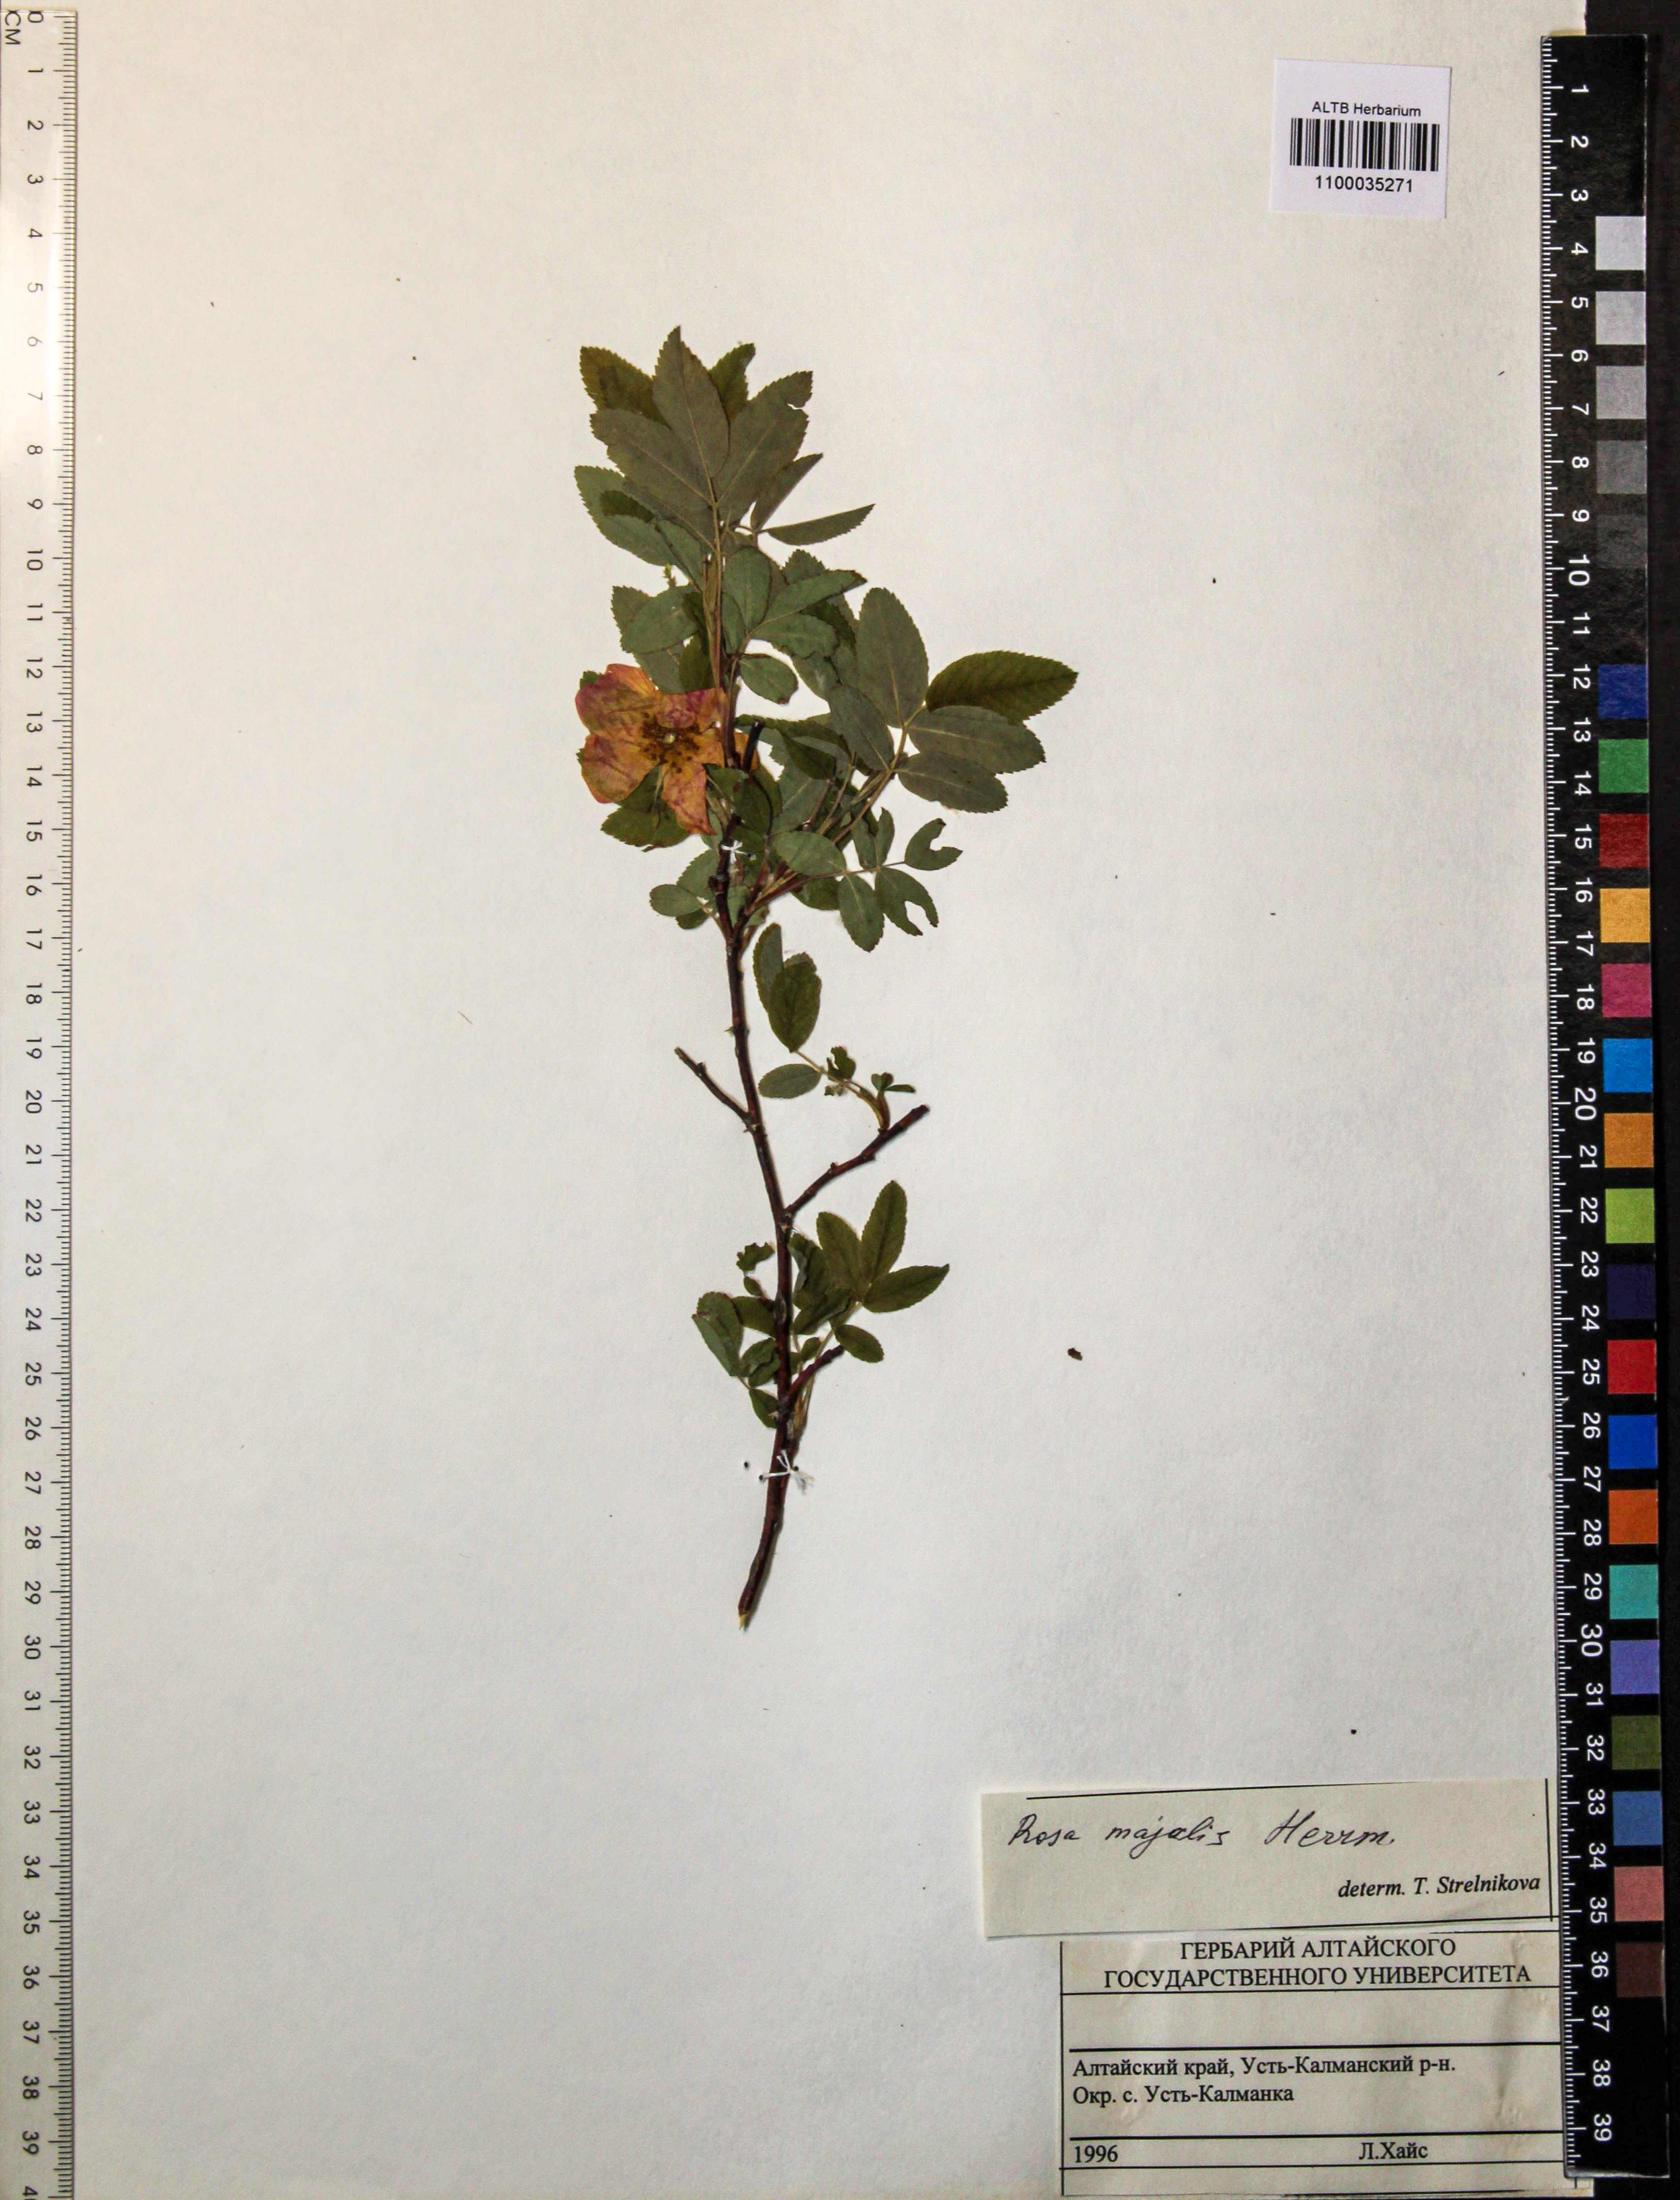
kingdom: Plantae
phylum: Tracheophyta
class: Magnoliopsida
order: Rosales
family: Rosaceae
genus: Rosa
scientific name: Rosa majalis
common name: Cinnamon rose
